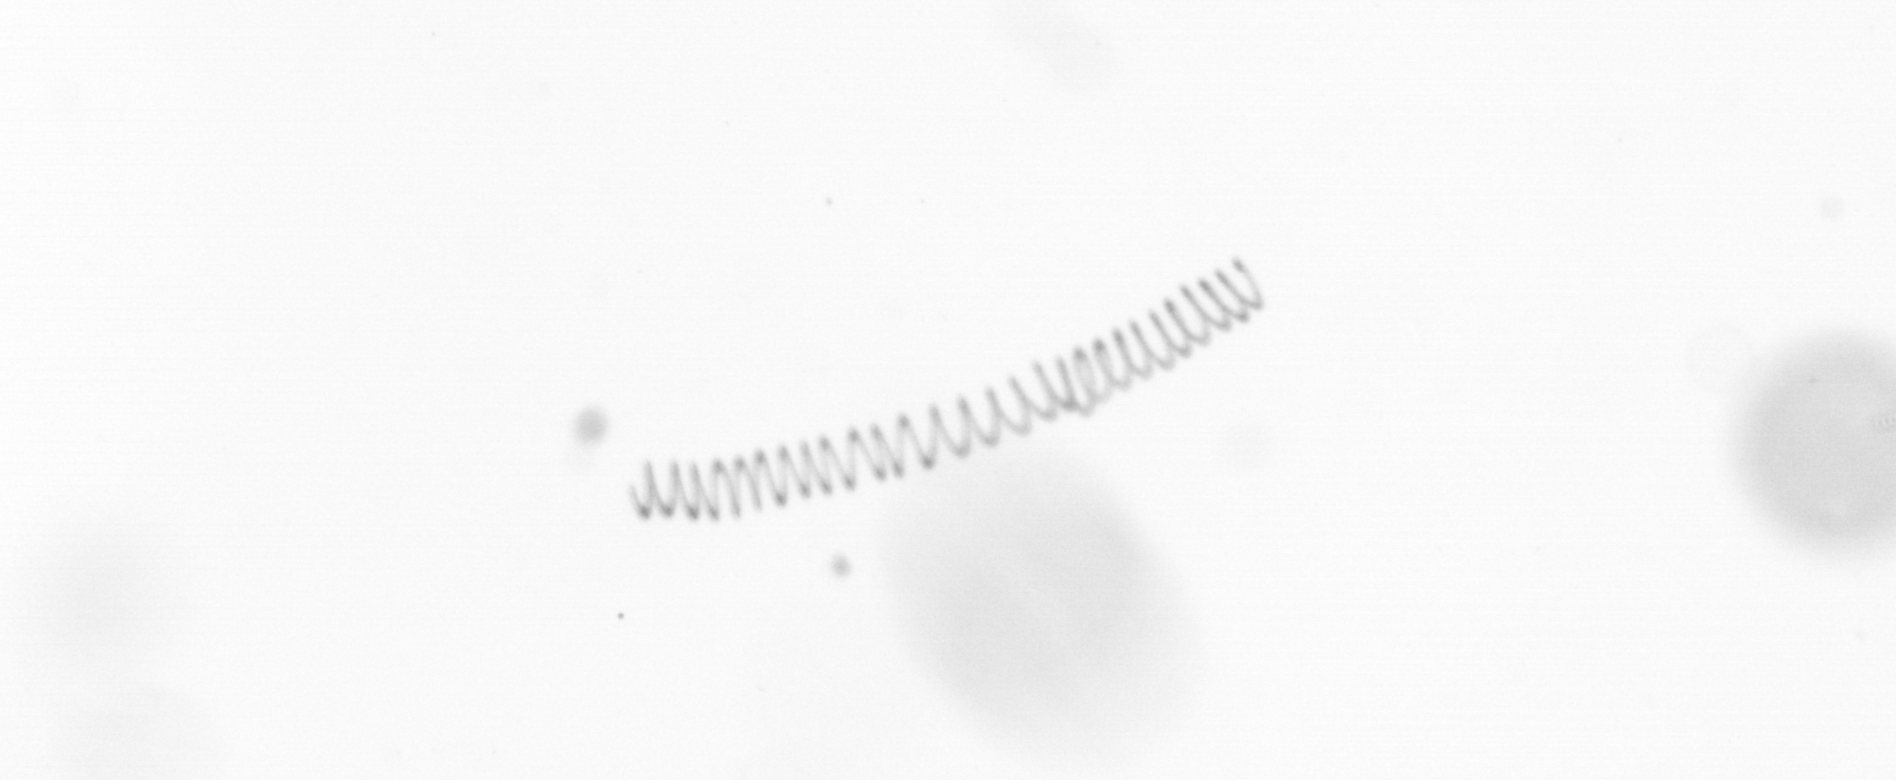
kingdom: Chromista
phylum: Ochrophyta
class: Bacillariophyceae
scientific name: Bacillariophyceae
